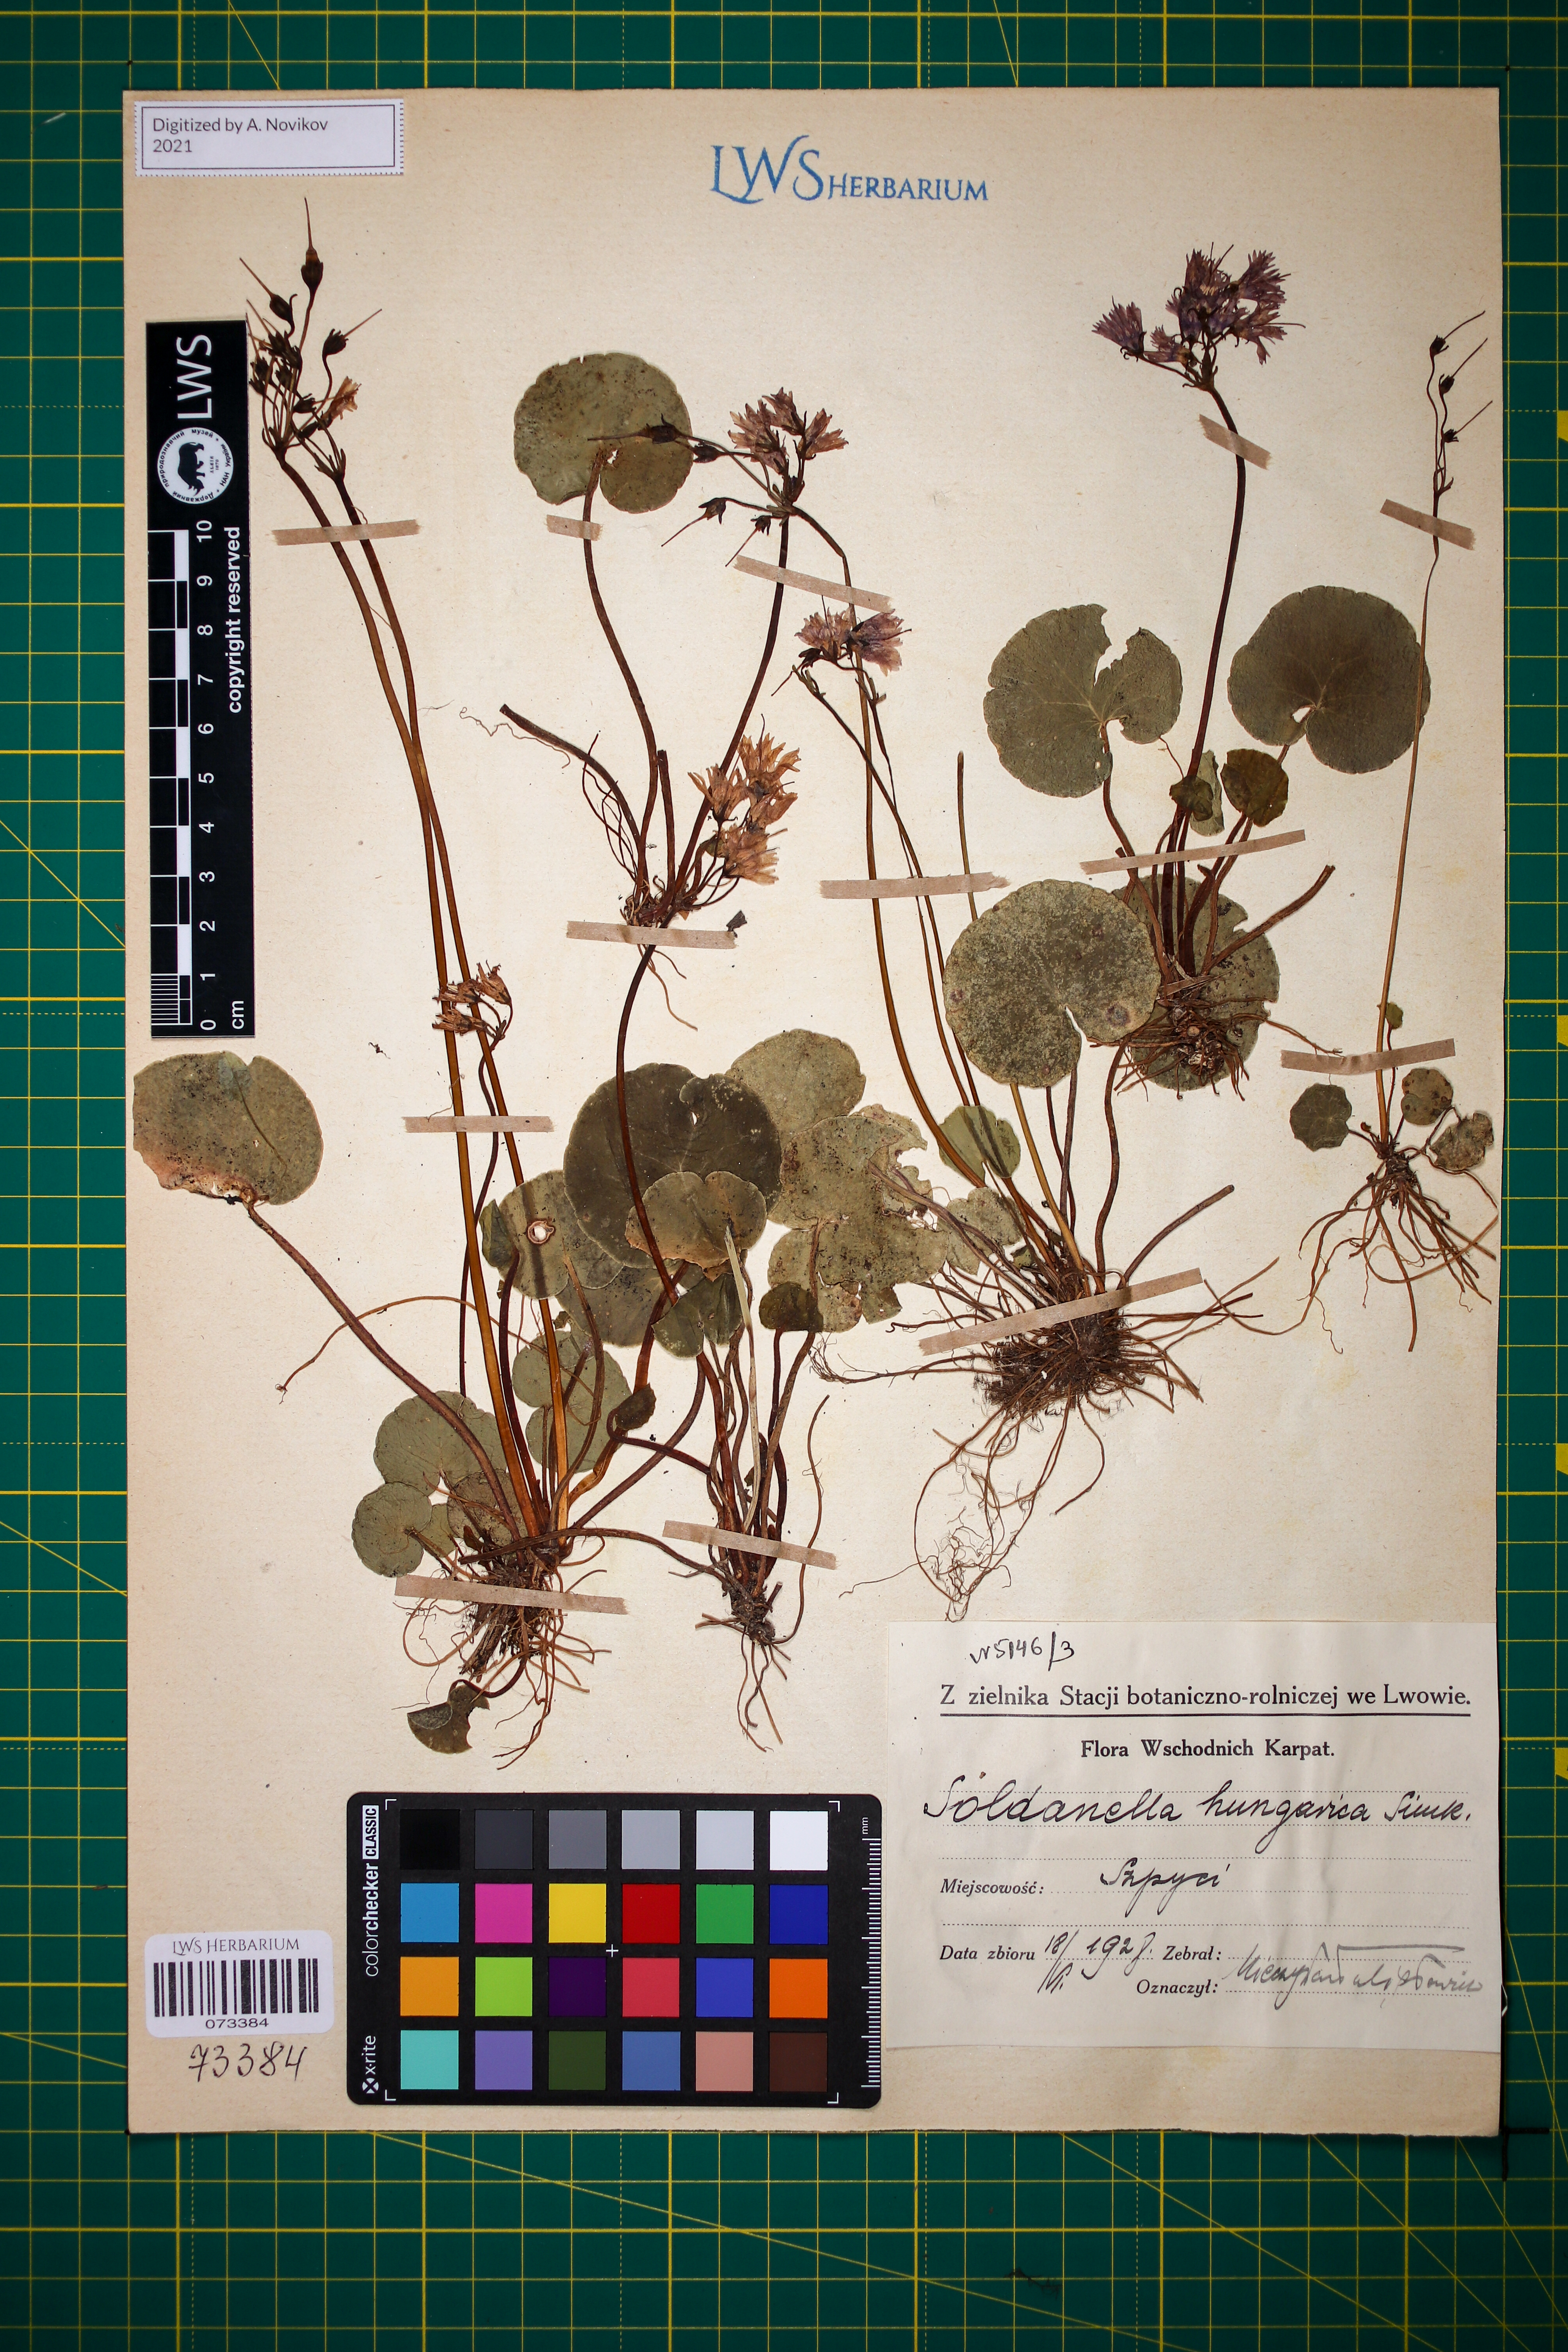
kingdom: Plantae
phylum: Tracheophyta
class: Magnoliopsida
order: Ericales
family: Primulaceae
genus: Soldanella
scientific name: Soldanella hungarica
